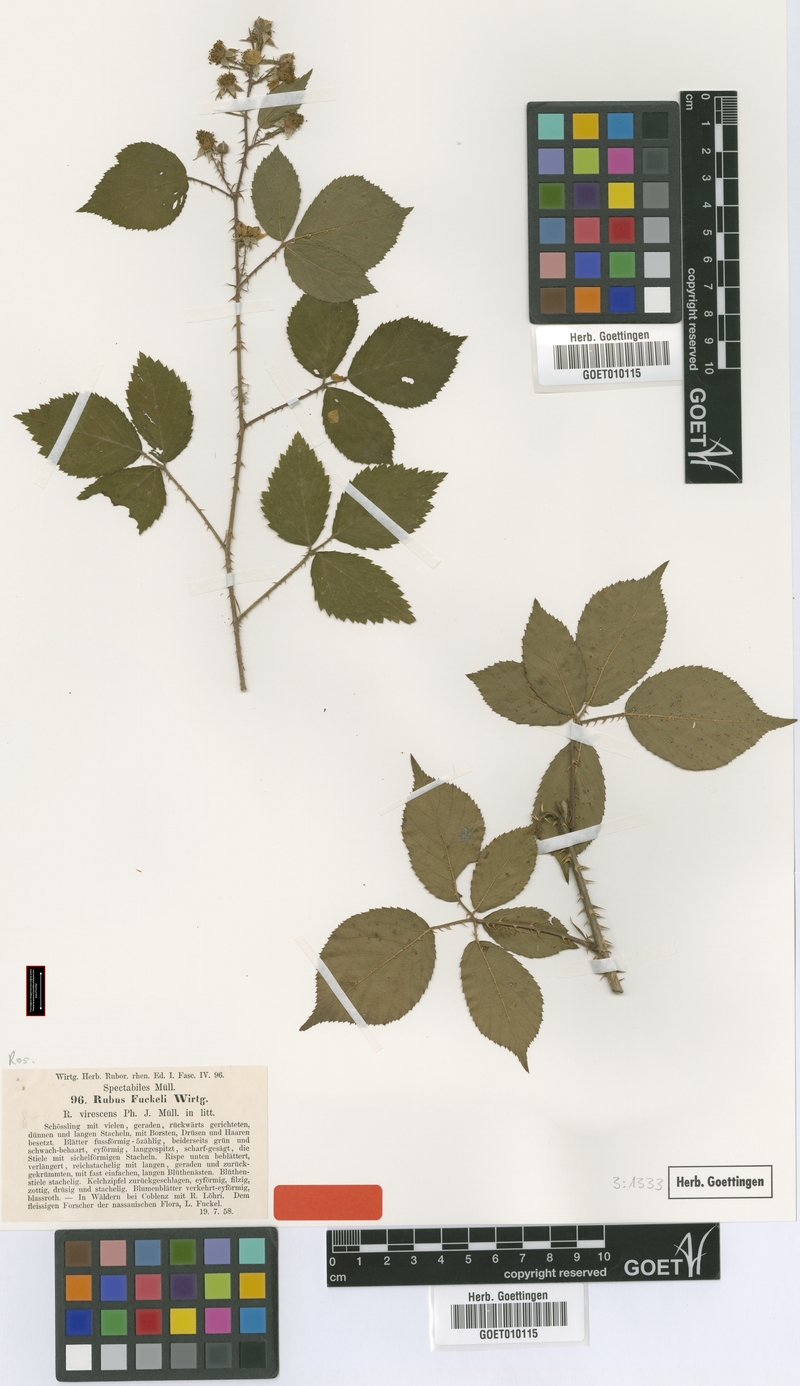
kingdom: Plantae
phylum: Tracheophyta
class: Magnoliopsida
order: Rosales
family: Rosaceae
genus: Rubus
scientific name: Rubus fuckelii
